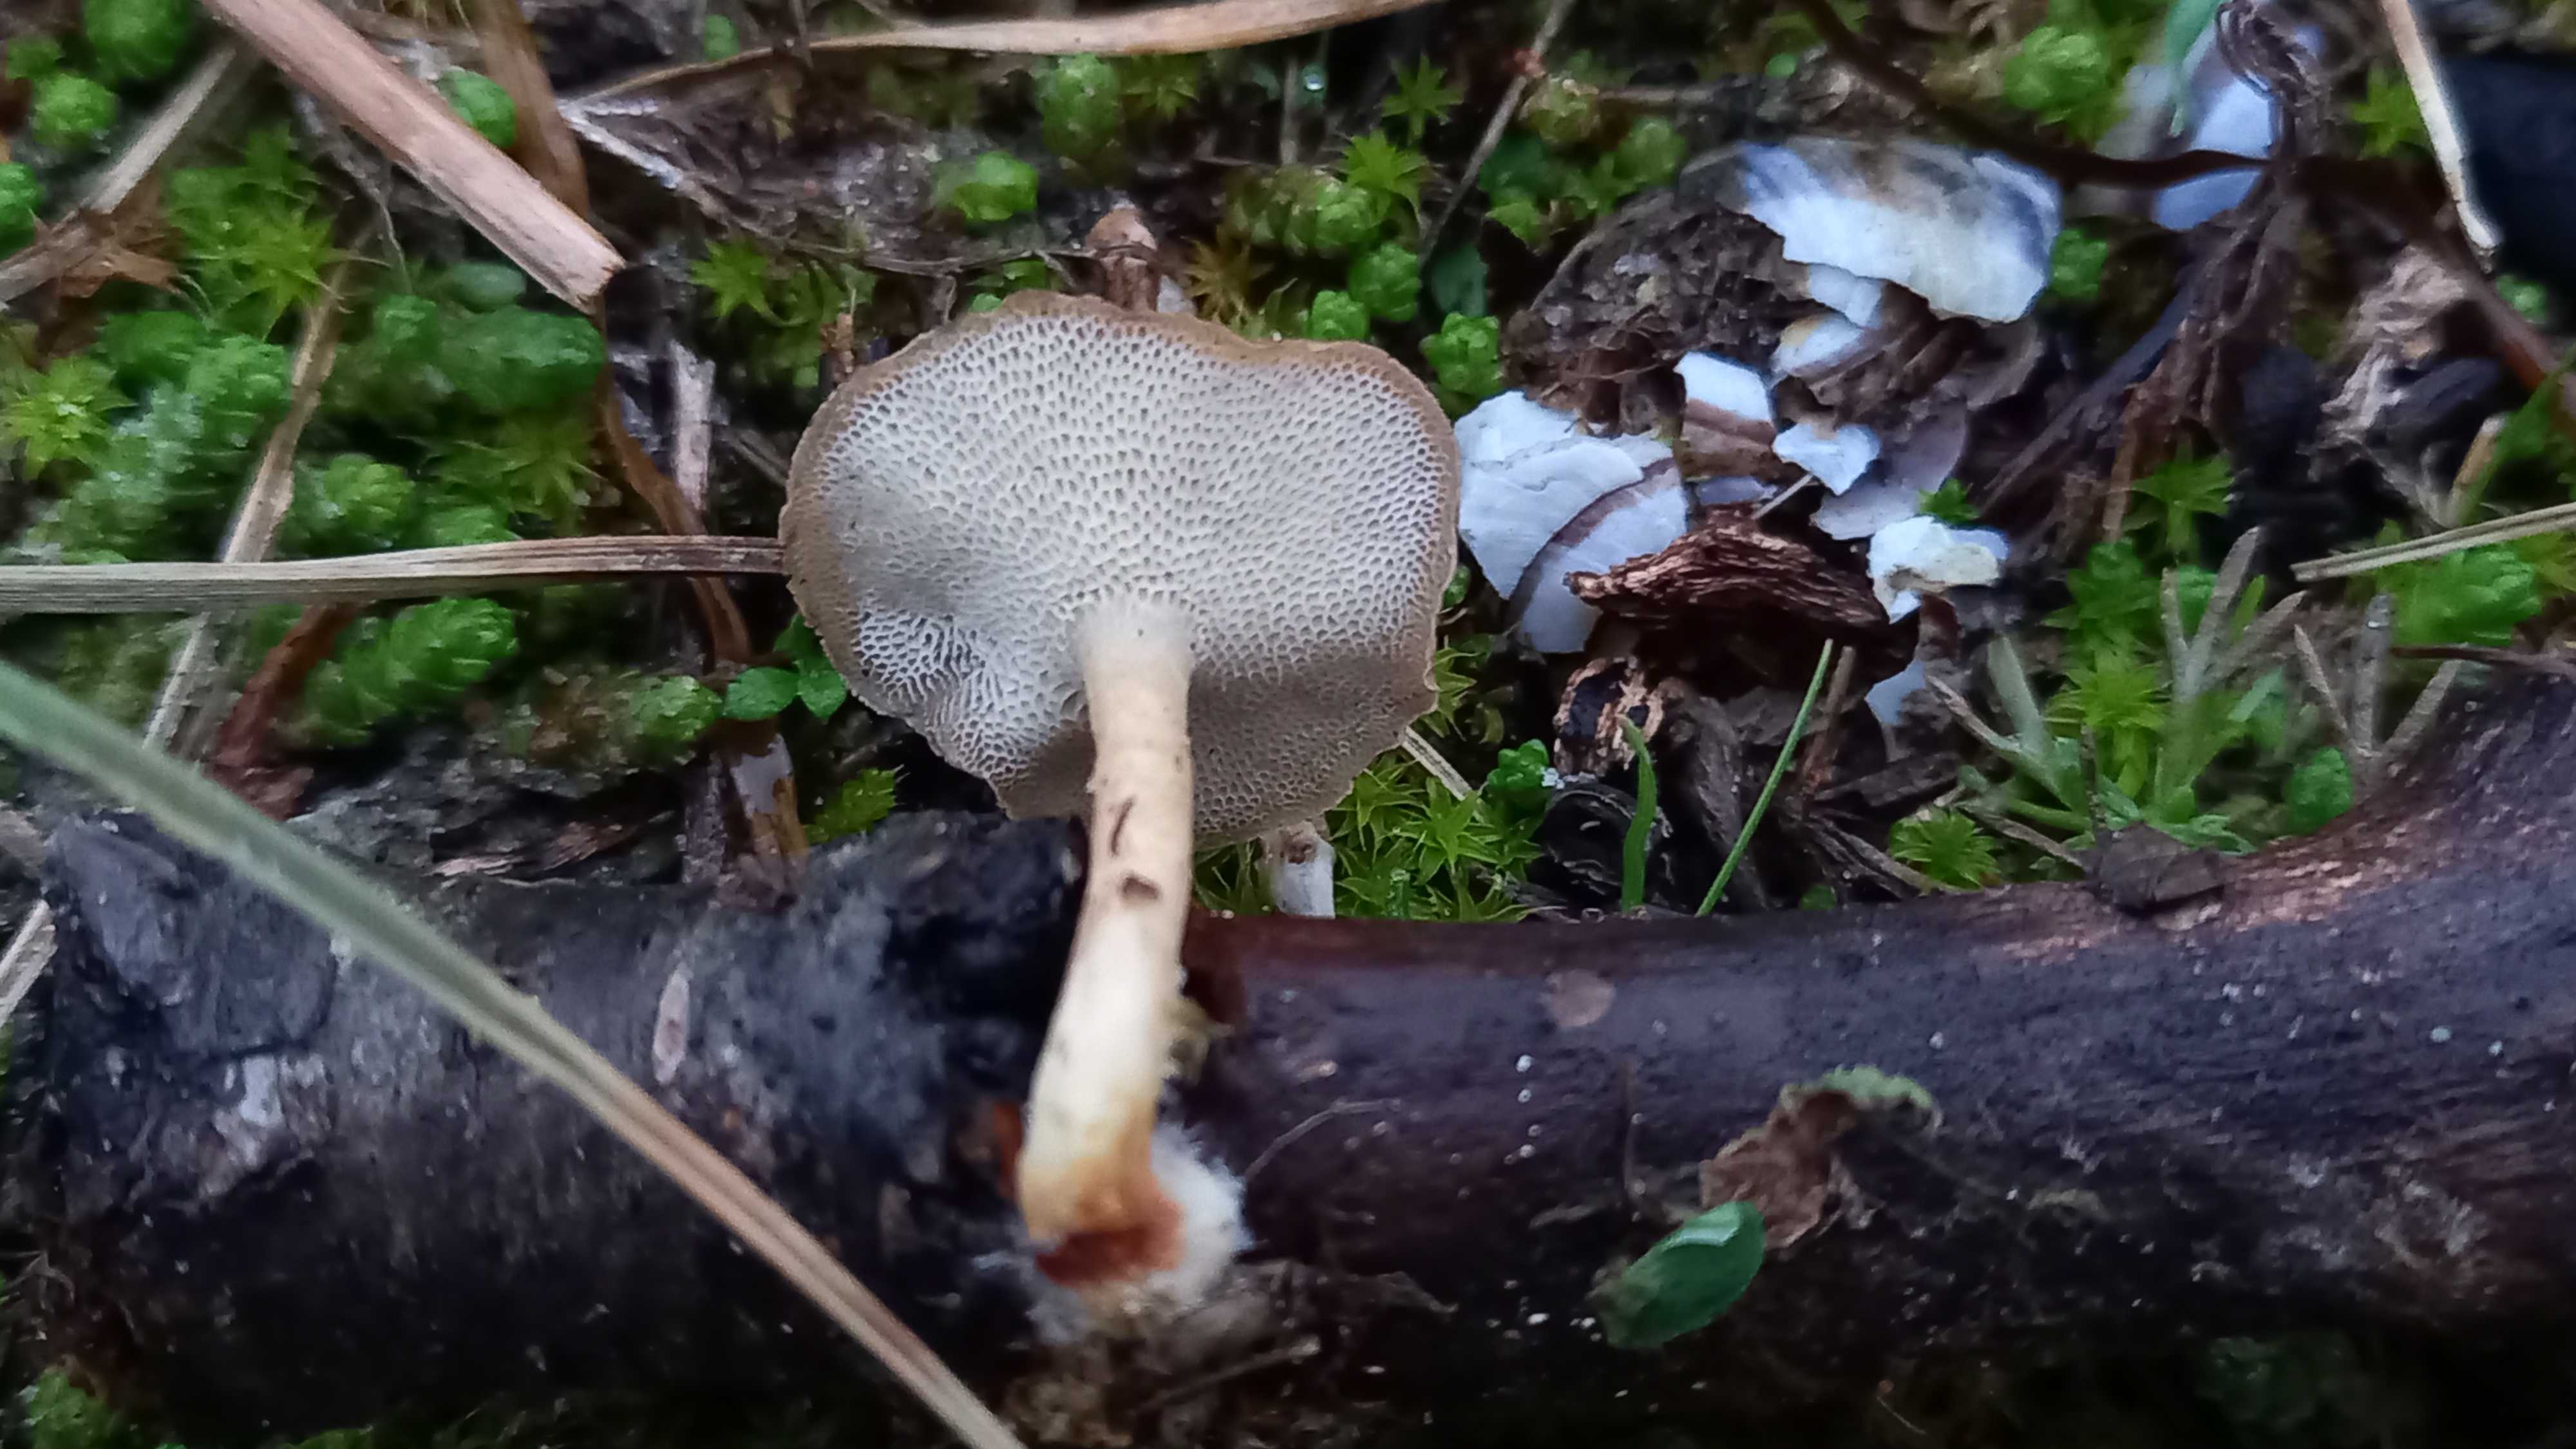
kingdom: Fungi
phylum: Basidiomycota
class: Agaricomycetes
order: Polyporales
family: Polyporaceae
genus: Lentinus
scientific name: Lentinus brumalis
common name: vinter-stilkporesvamp
